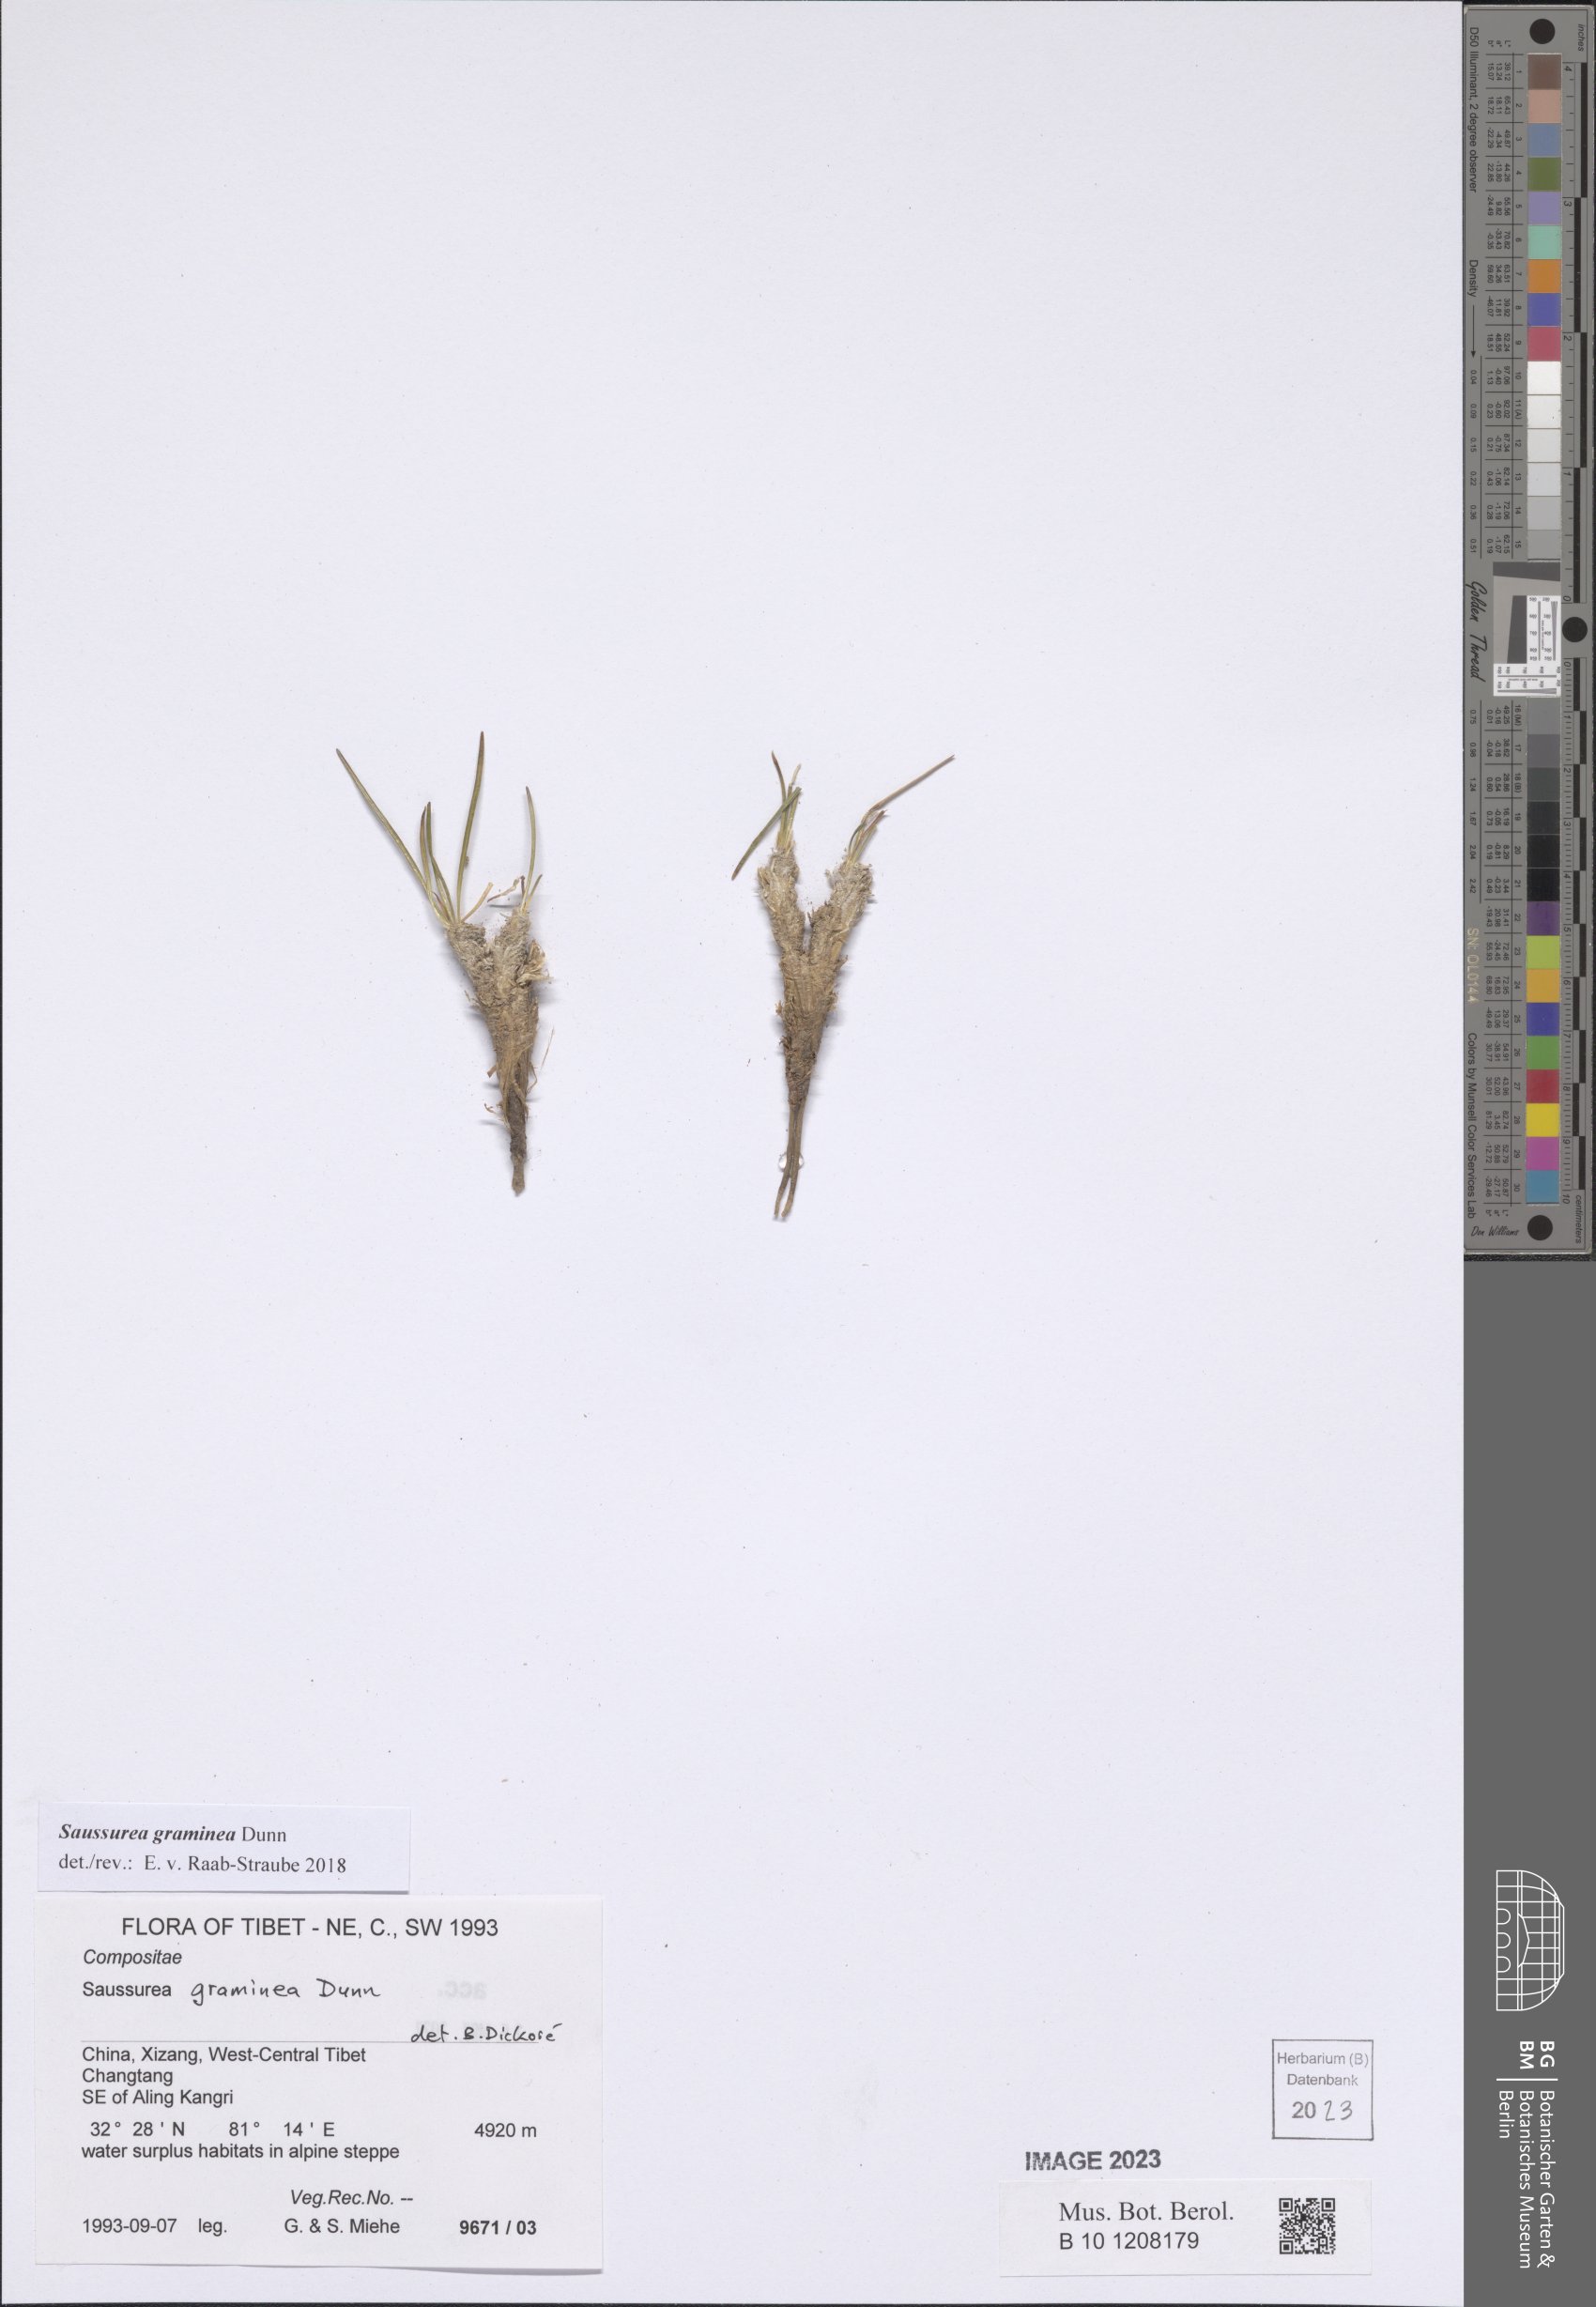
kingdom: Plantae
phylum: Tracheophyta
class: Magnoliopsida
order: Asterales
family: Asteraceae
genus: Saussurea
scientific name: Saussurea graminea
